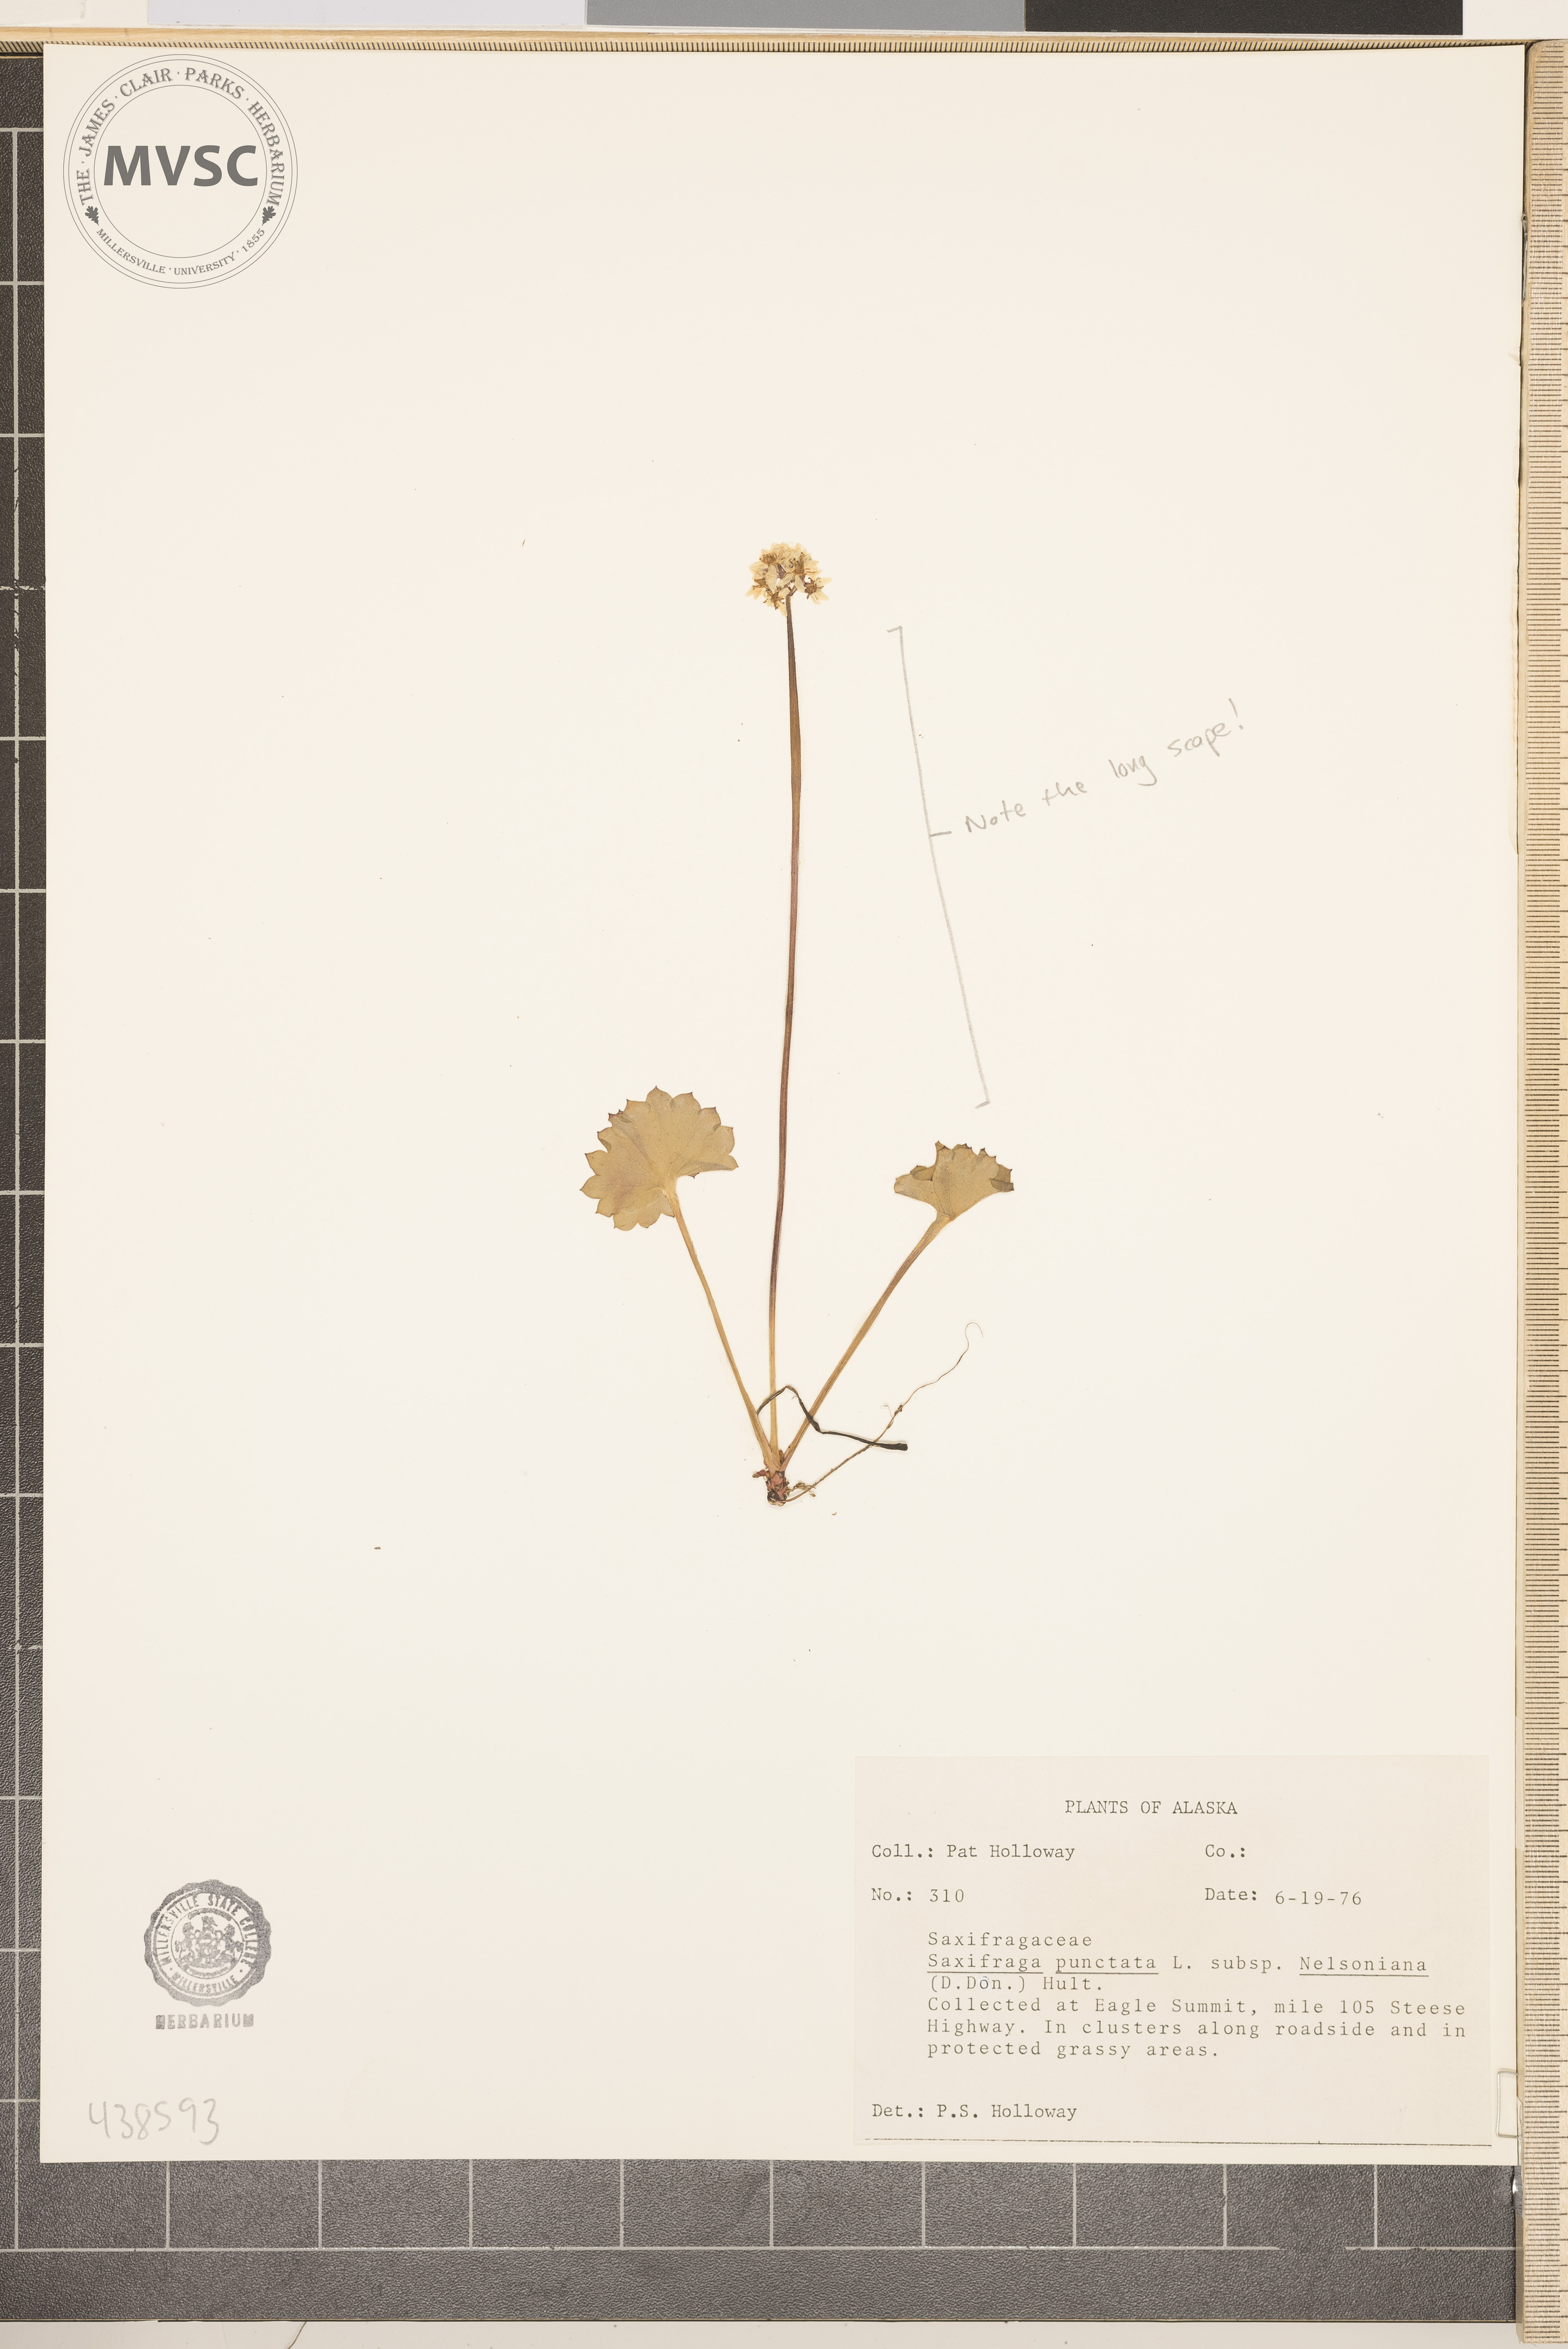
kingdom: Plantae
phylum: Tracheophyta
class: Magnoliopsida
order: Saxifragales
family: Saxifragaceae
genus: Micranthes
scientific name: Micranthes punctata
